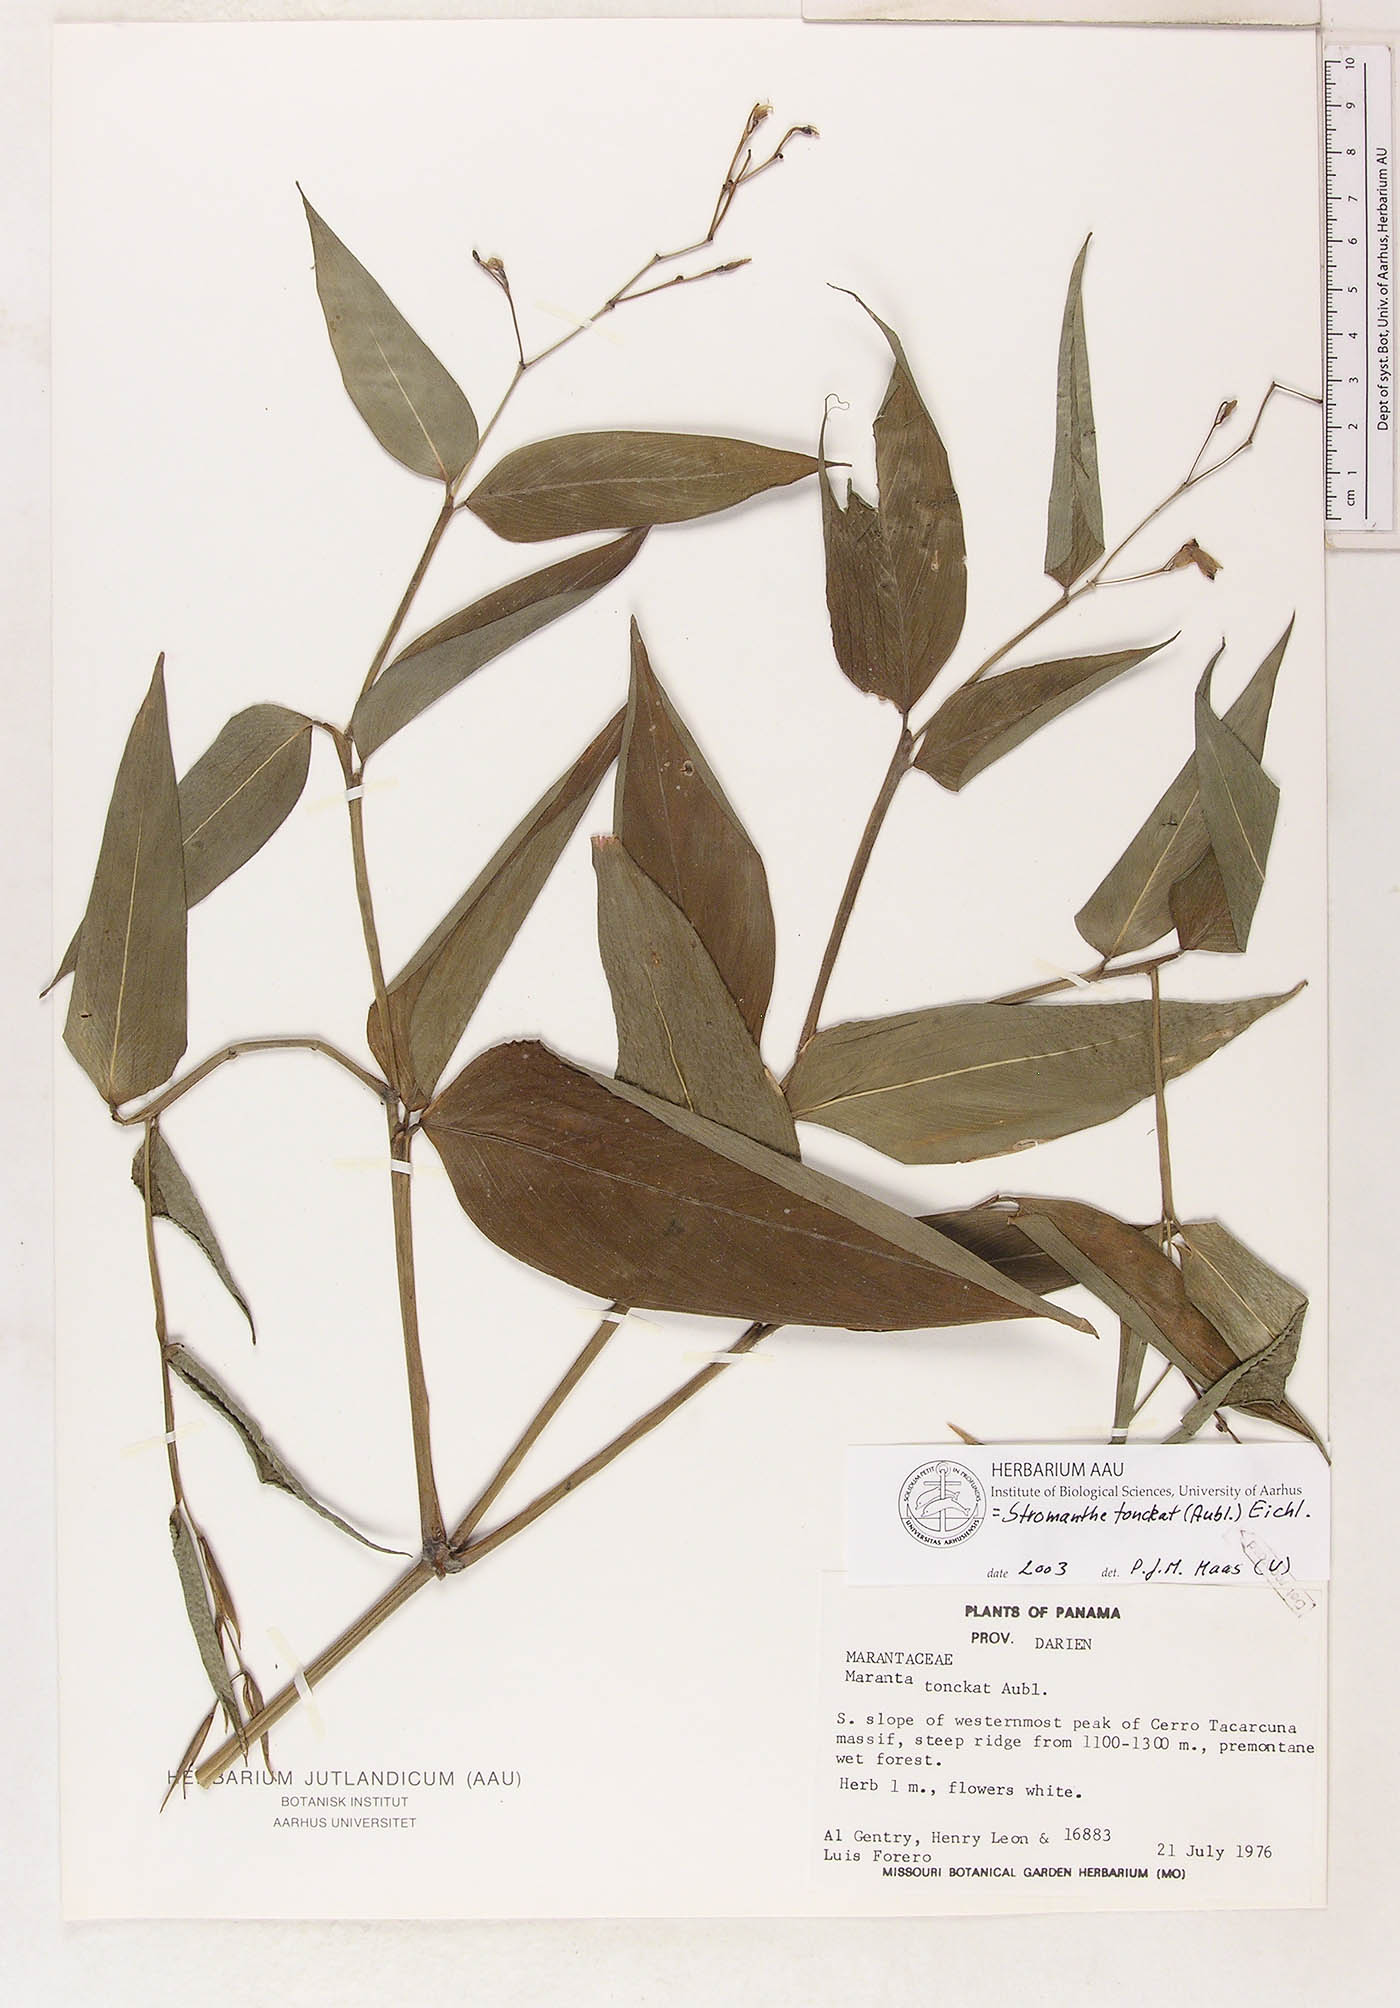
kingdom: Plantae
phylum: Tracheophyta
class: Liliopsida
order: Zingiberales
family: Marantaceae
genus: Stromanthe
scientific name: Stromanthe tonckat
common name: Stromanthe
